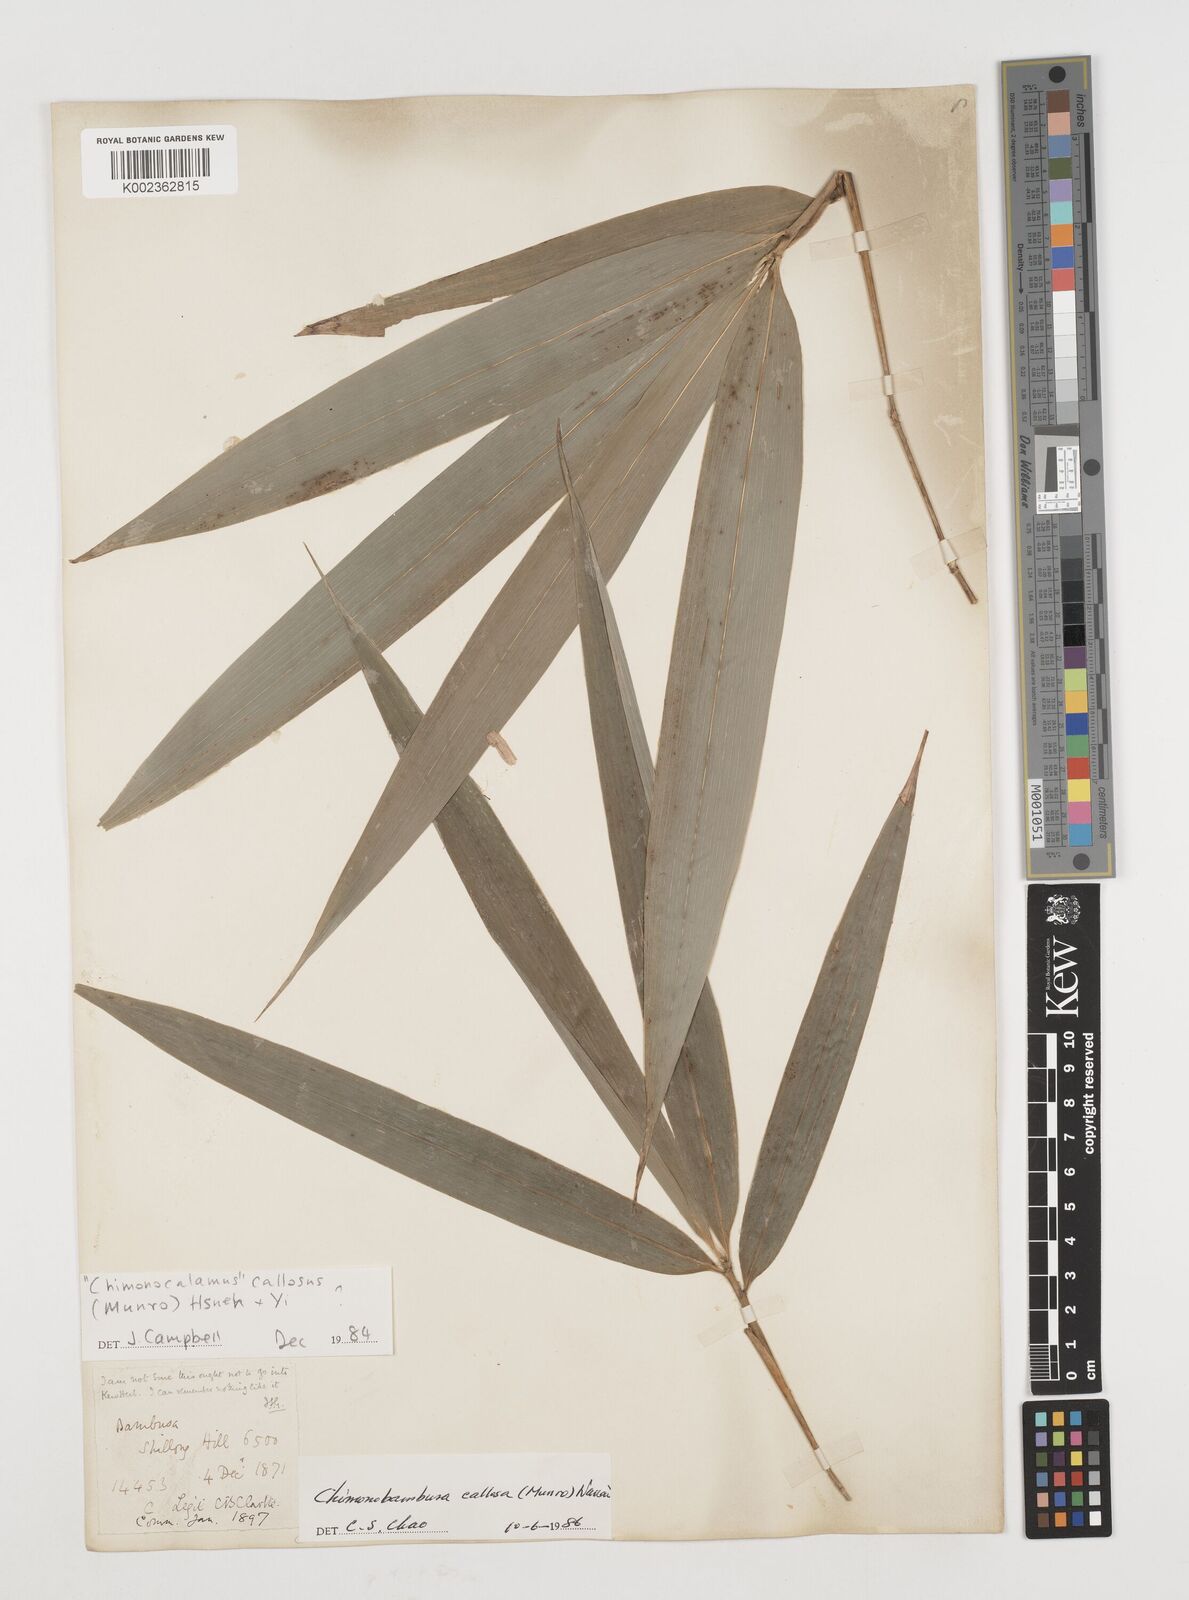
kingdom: Plantae
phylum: Tracheophyta
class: Liliopsida
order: Poales
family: Poaceae
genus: Chimonobambusa
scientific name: Chimonobambusa callosa
